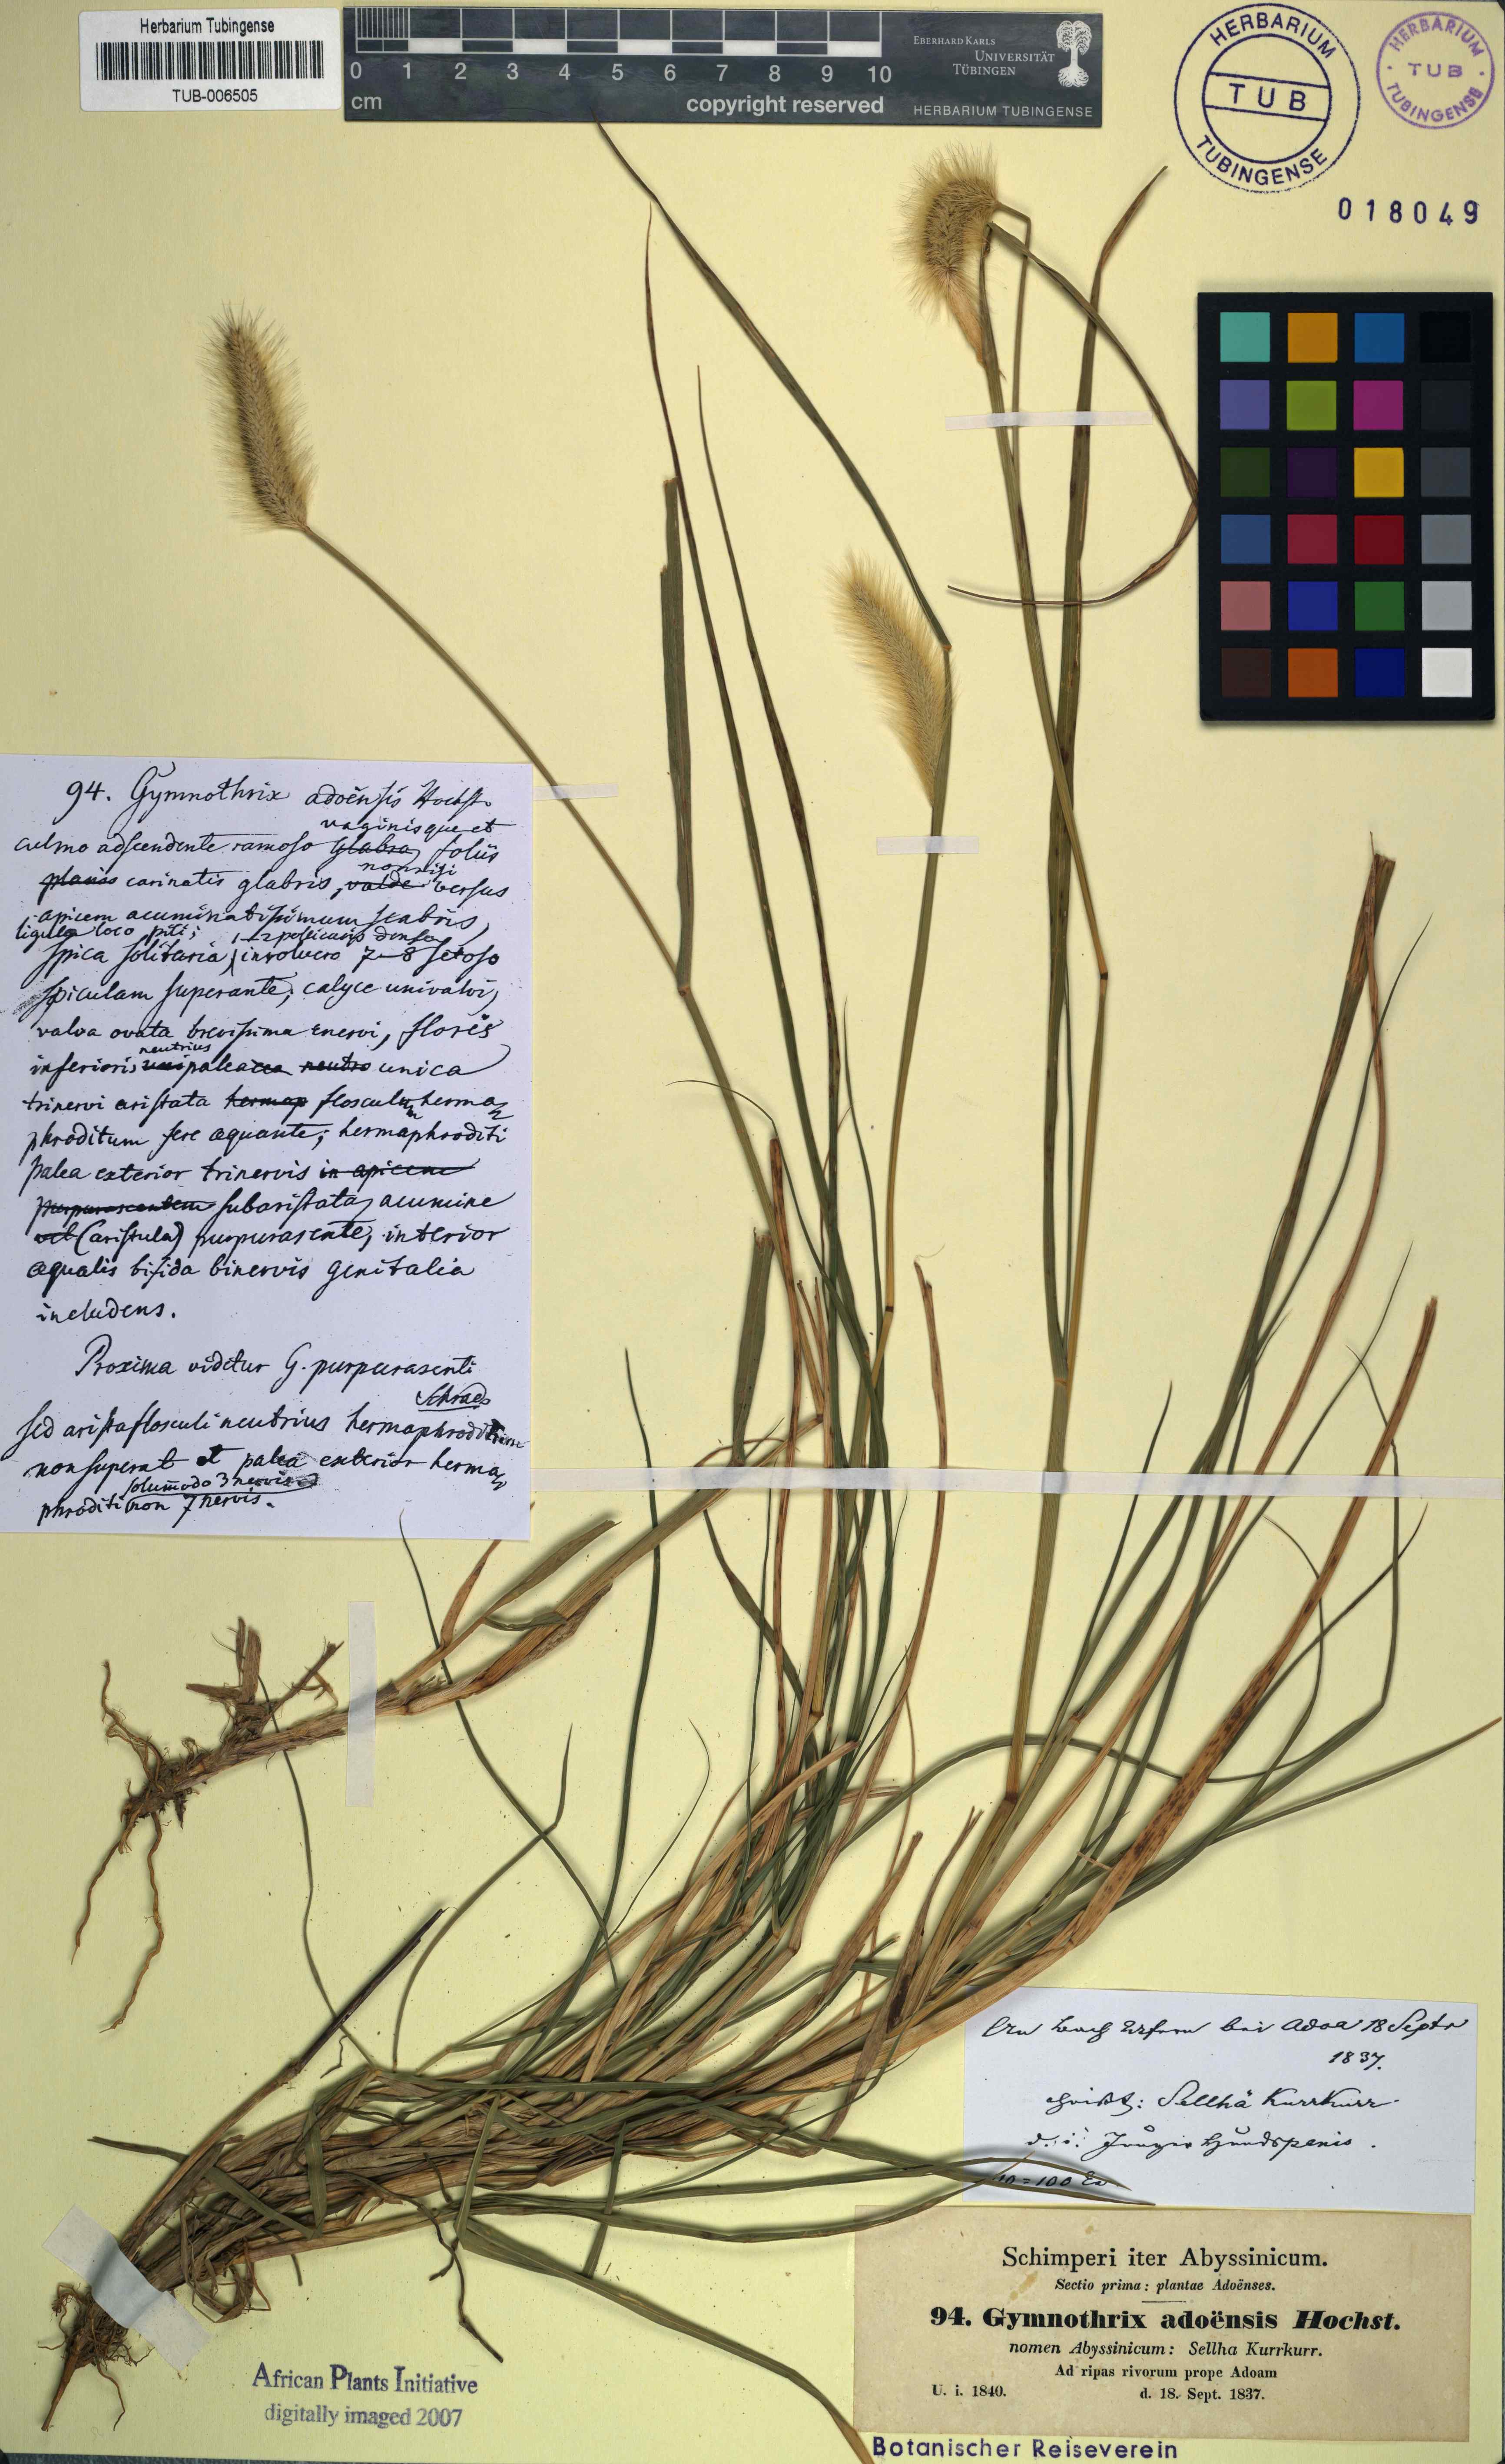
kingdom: Plantae
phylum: Tracheophyta
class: Liliopsida
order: Poales
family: Poaceae
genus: Cenchrus
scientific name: Cenchrus petiolaris
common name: Grass
